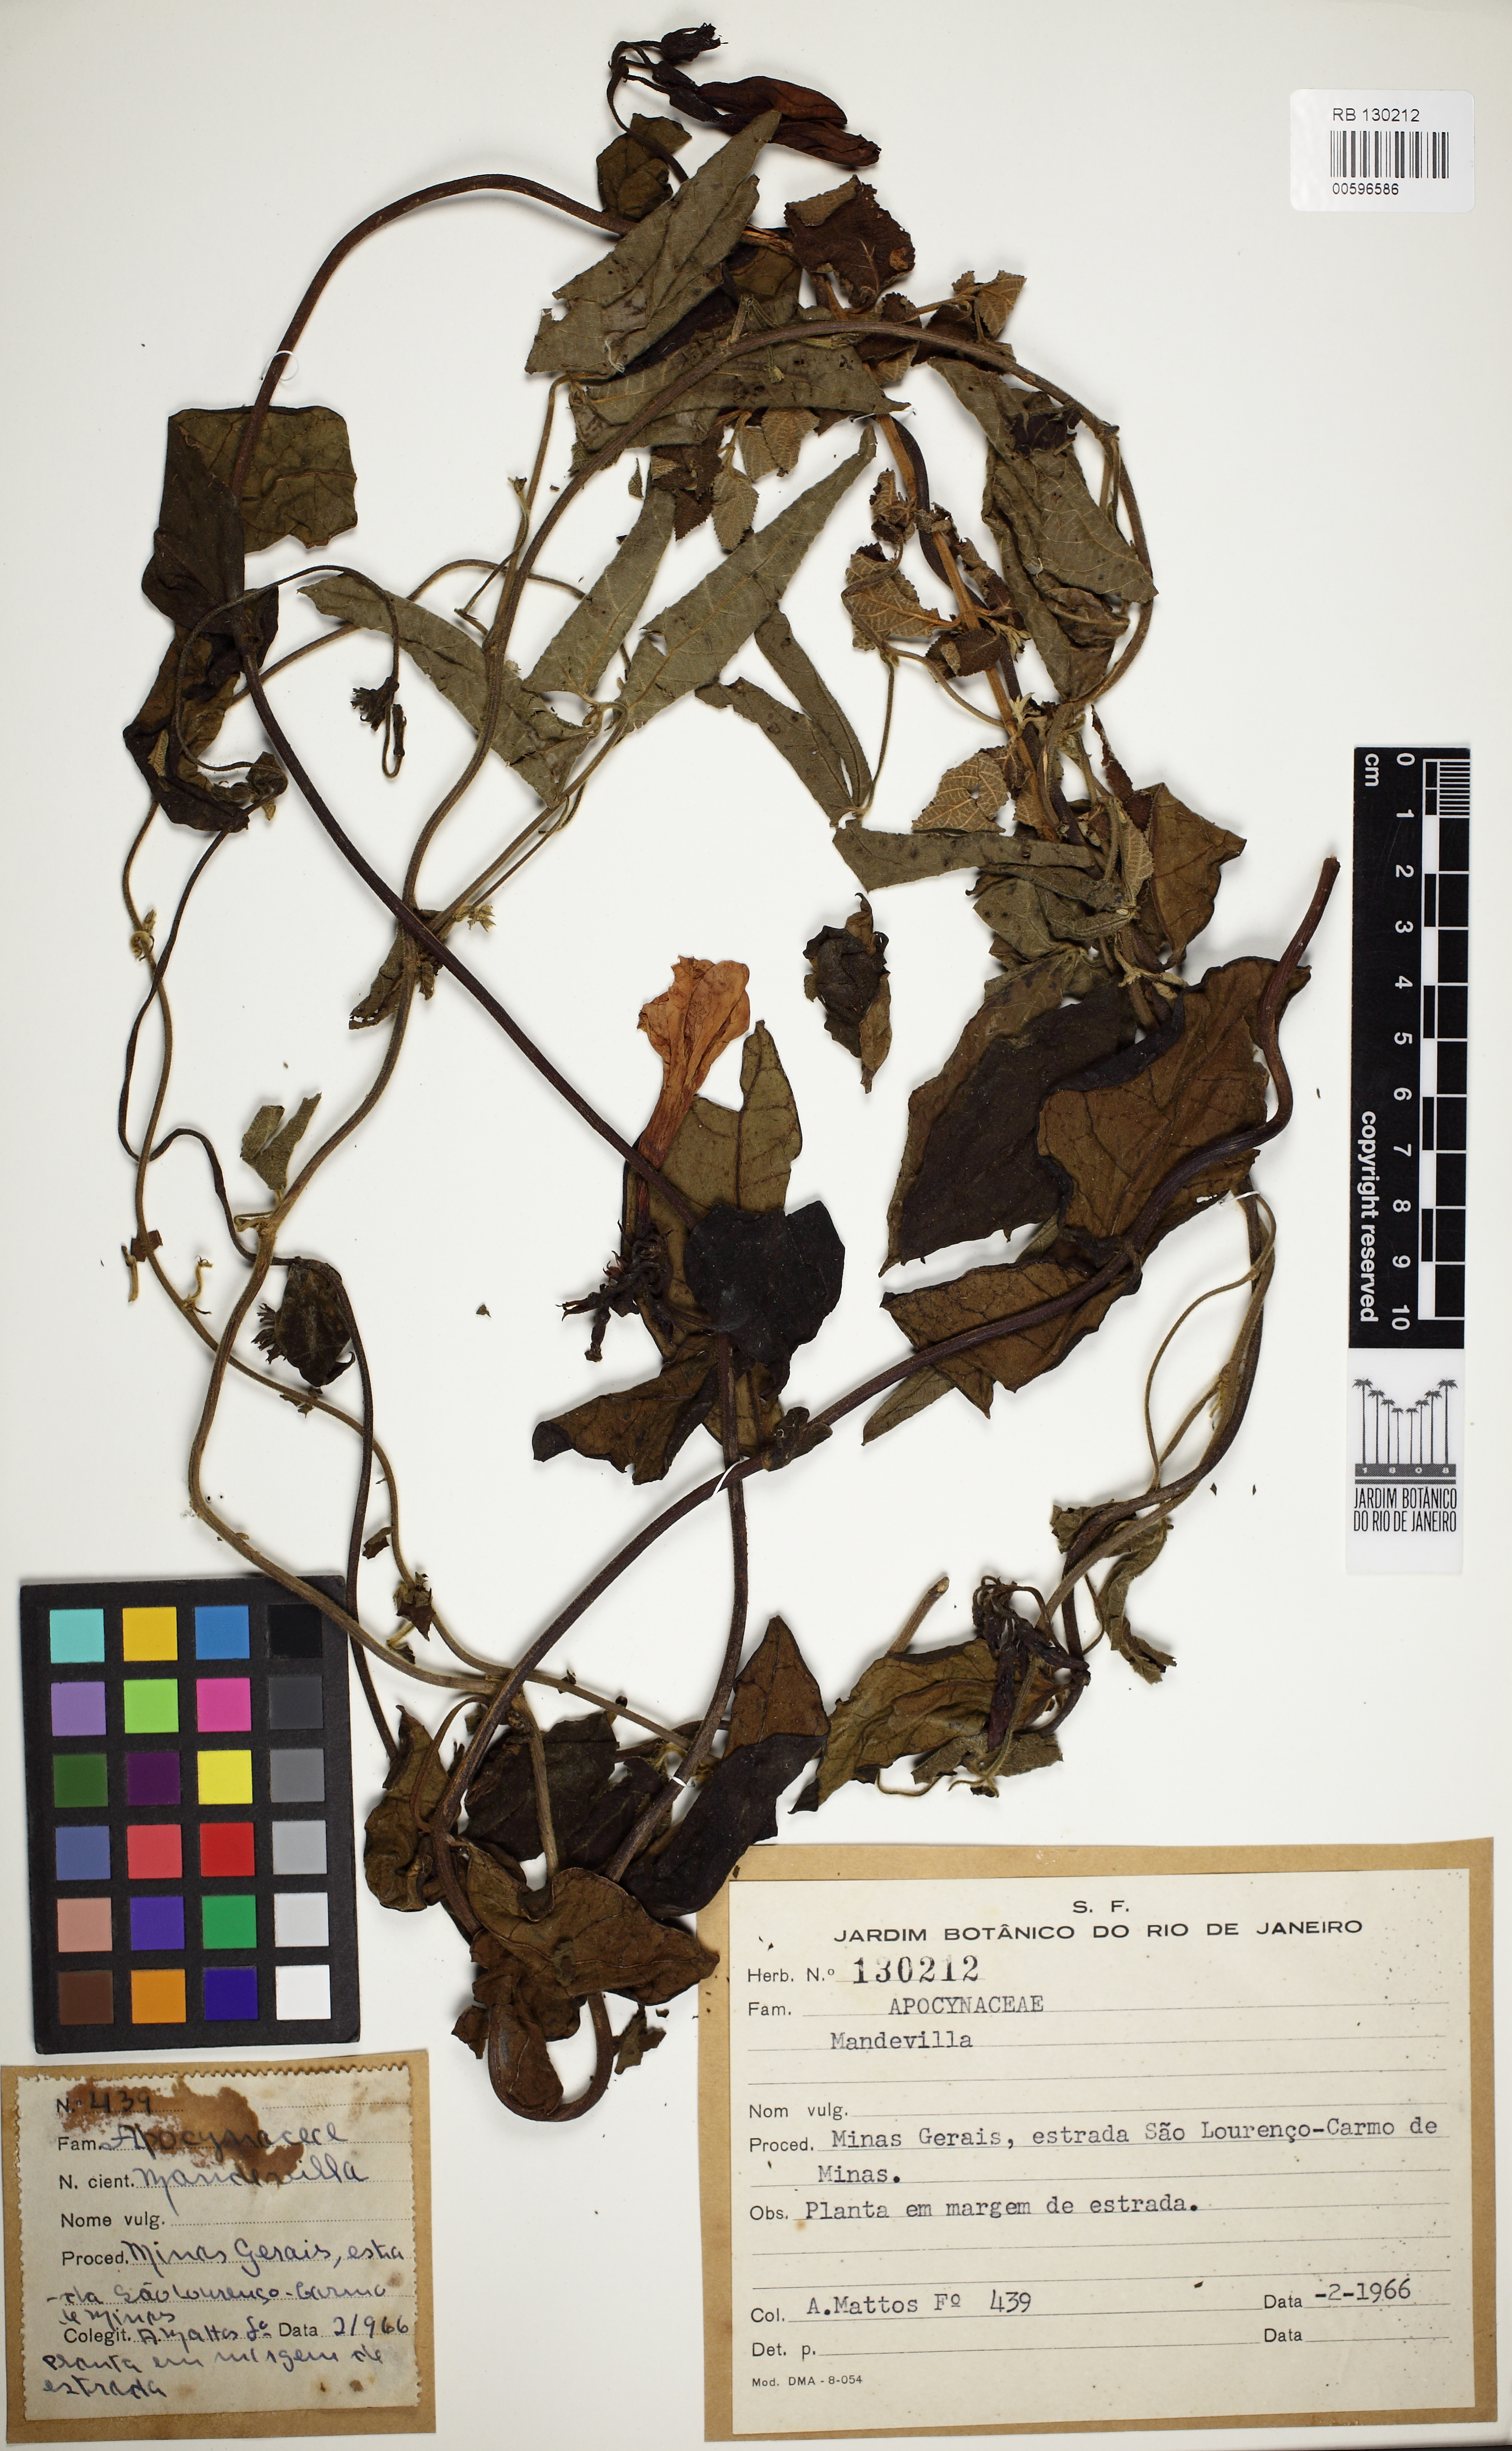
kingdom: Plantae
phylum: Tracheophyta
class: Magnoliopsida
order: Gentianales
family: Apocynaceae
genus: Mandevilla
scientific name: Mandevilla
